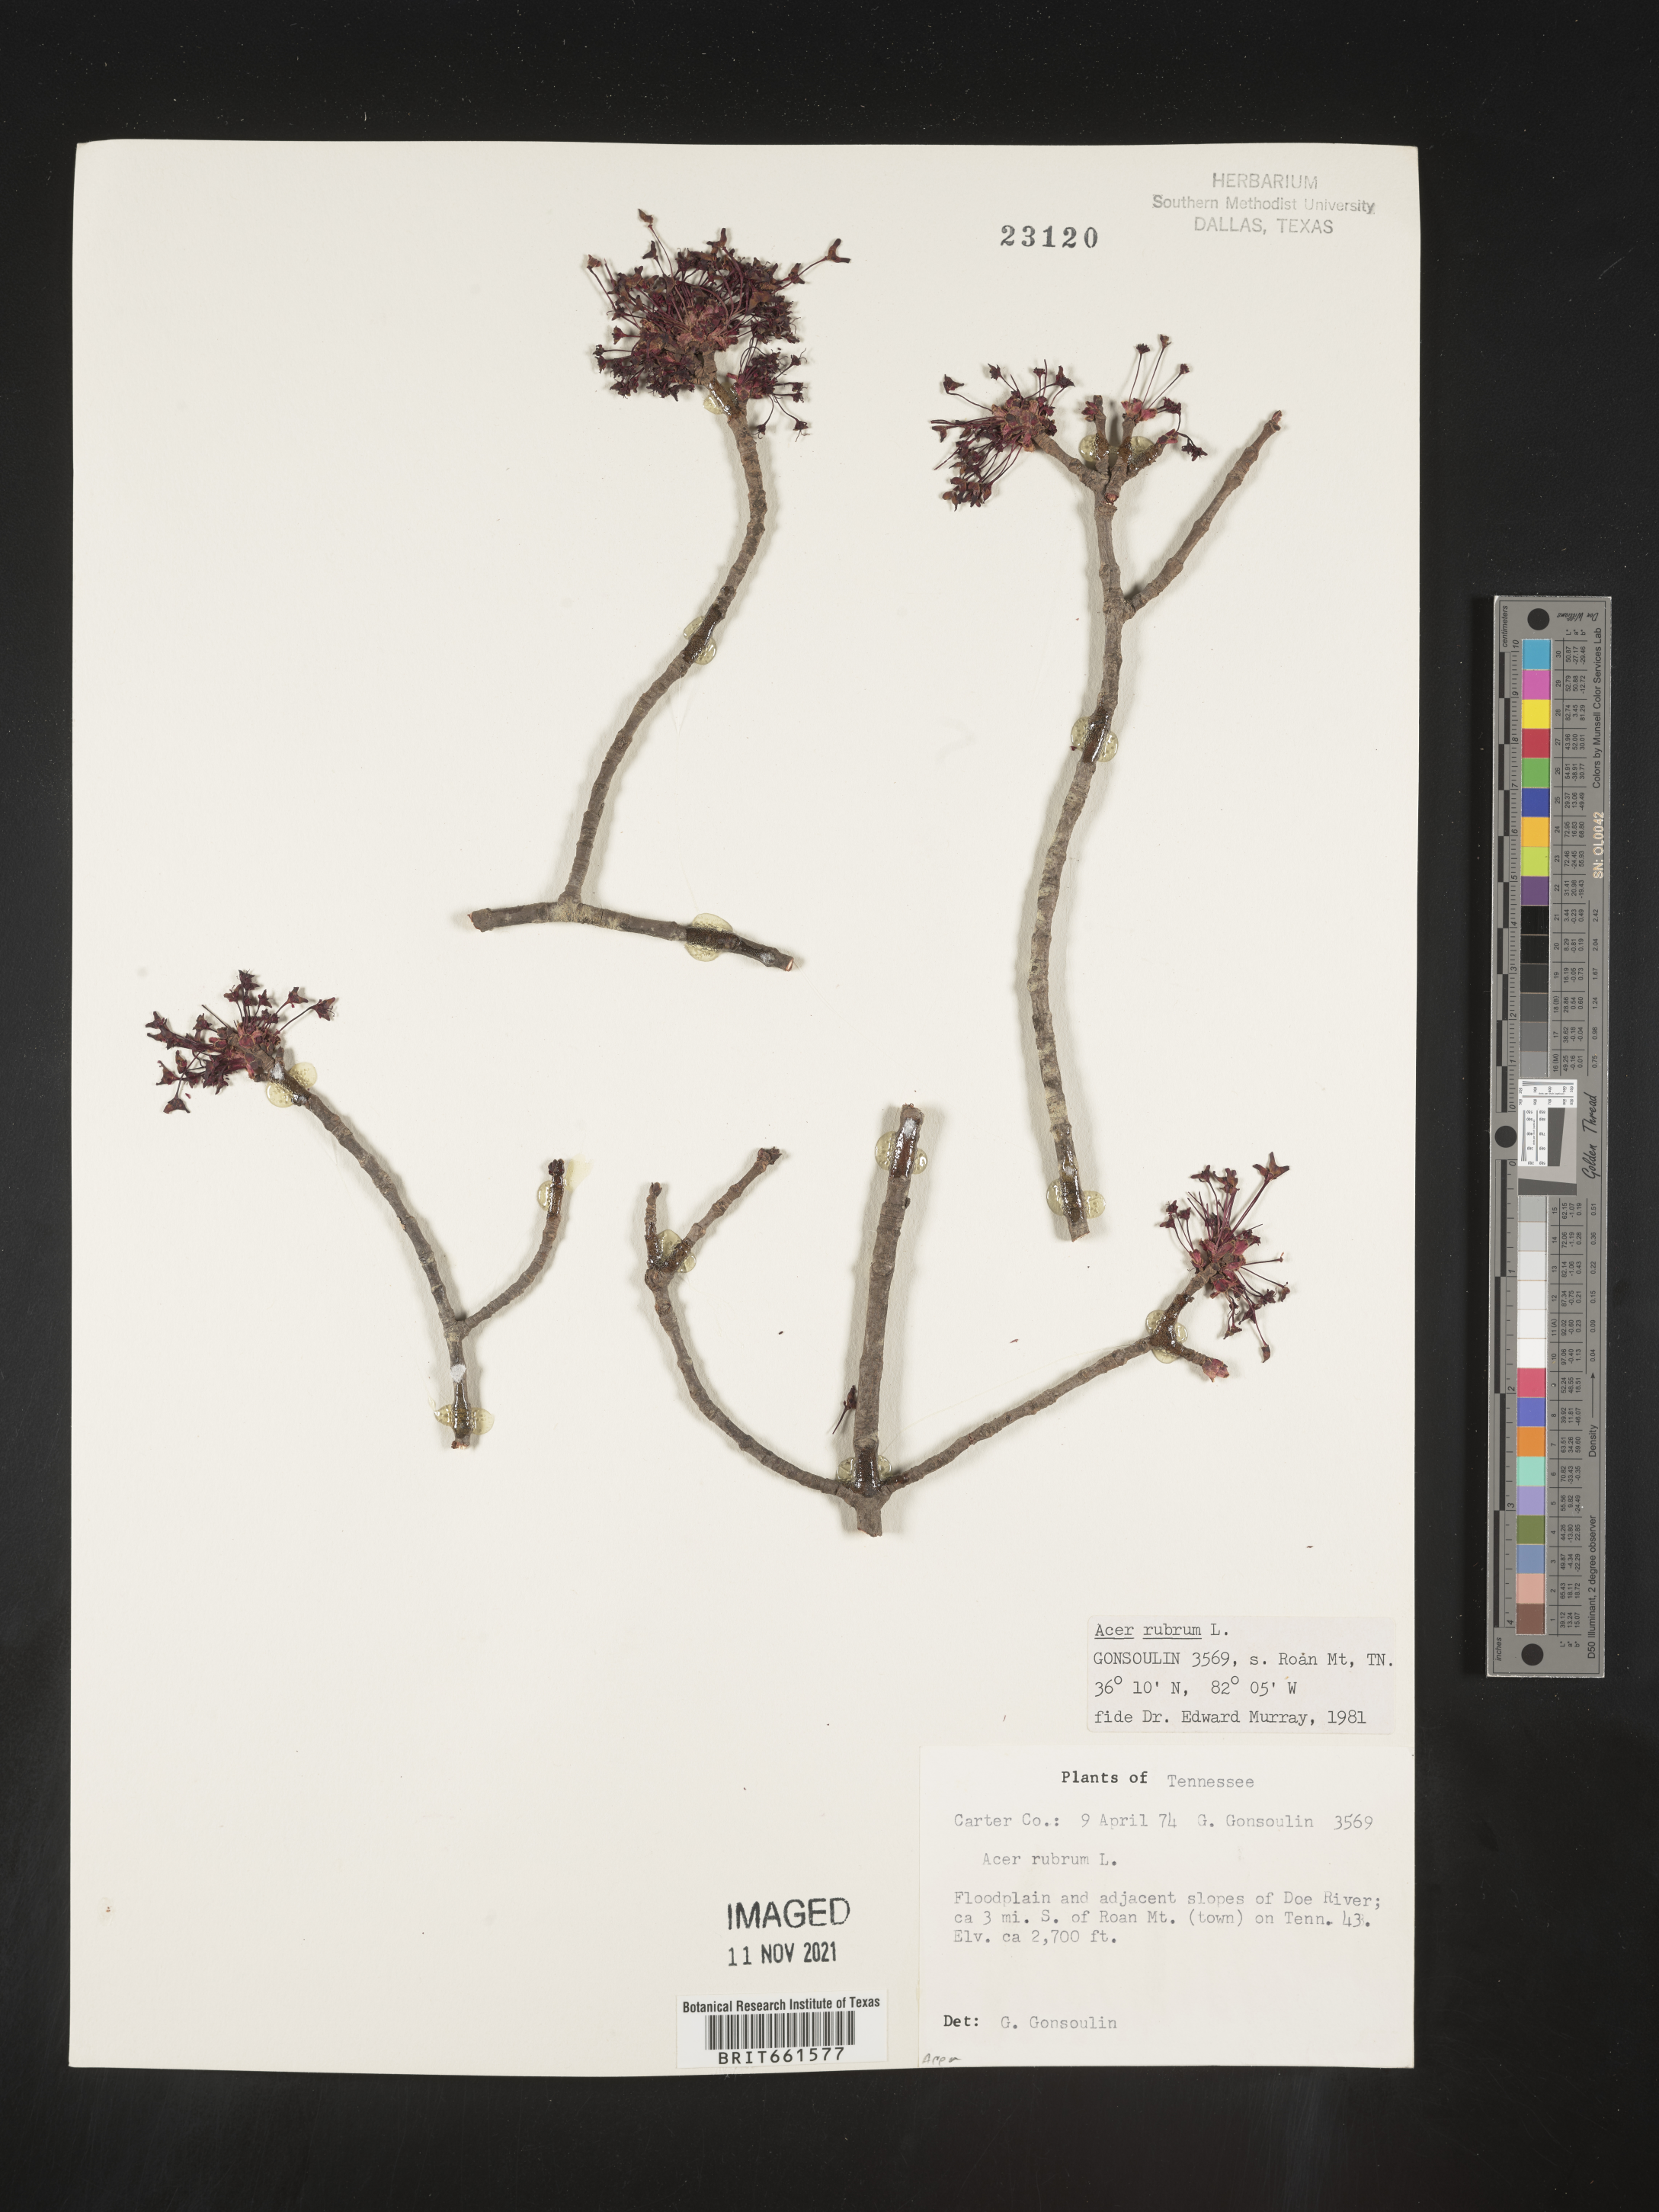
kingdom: Plantae
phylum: Tracheophyta
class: Magnoliopsida
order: Sapindales
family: Sapindaceae
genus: Acer
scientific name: Acer rubrum
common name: Red maple
